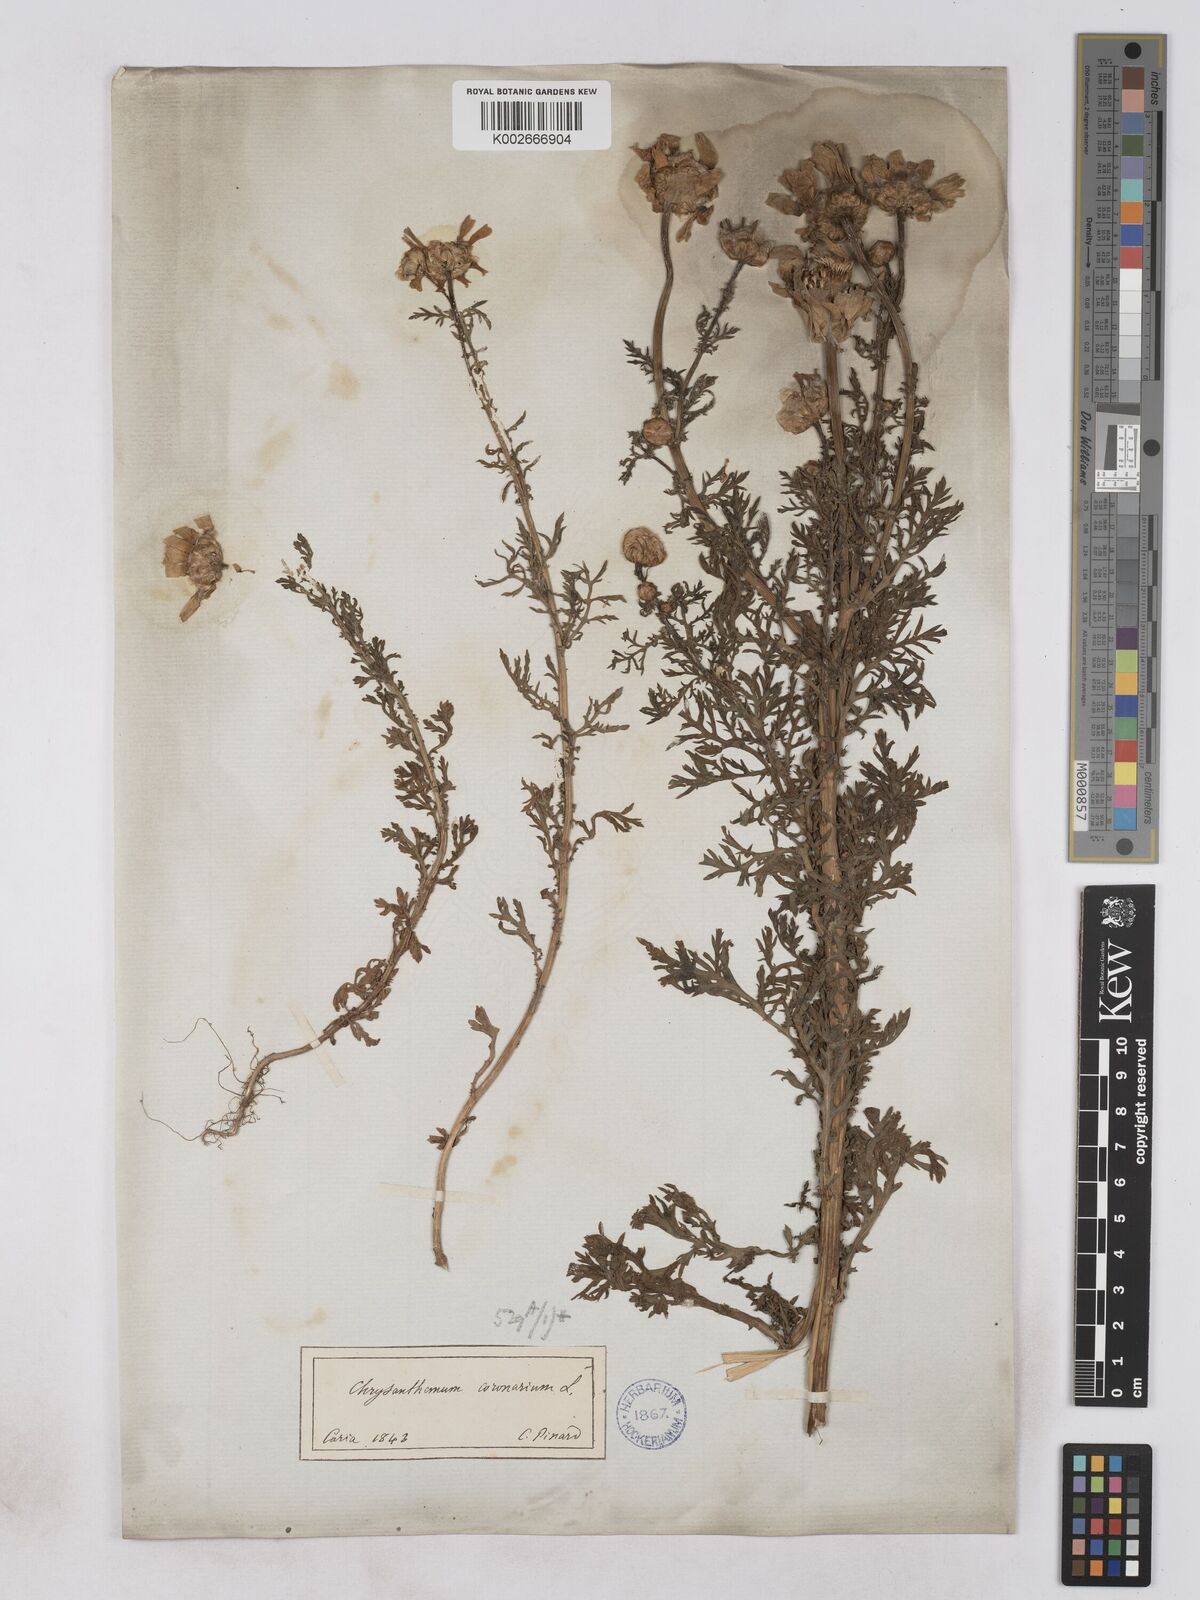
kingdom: Plantae
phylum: Tracheophyta
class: Magnoliopsida
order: Asterales
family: Asteraceae
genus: Glebionis
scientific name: Glebionis coronaria
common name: Crowndaisy
